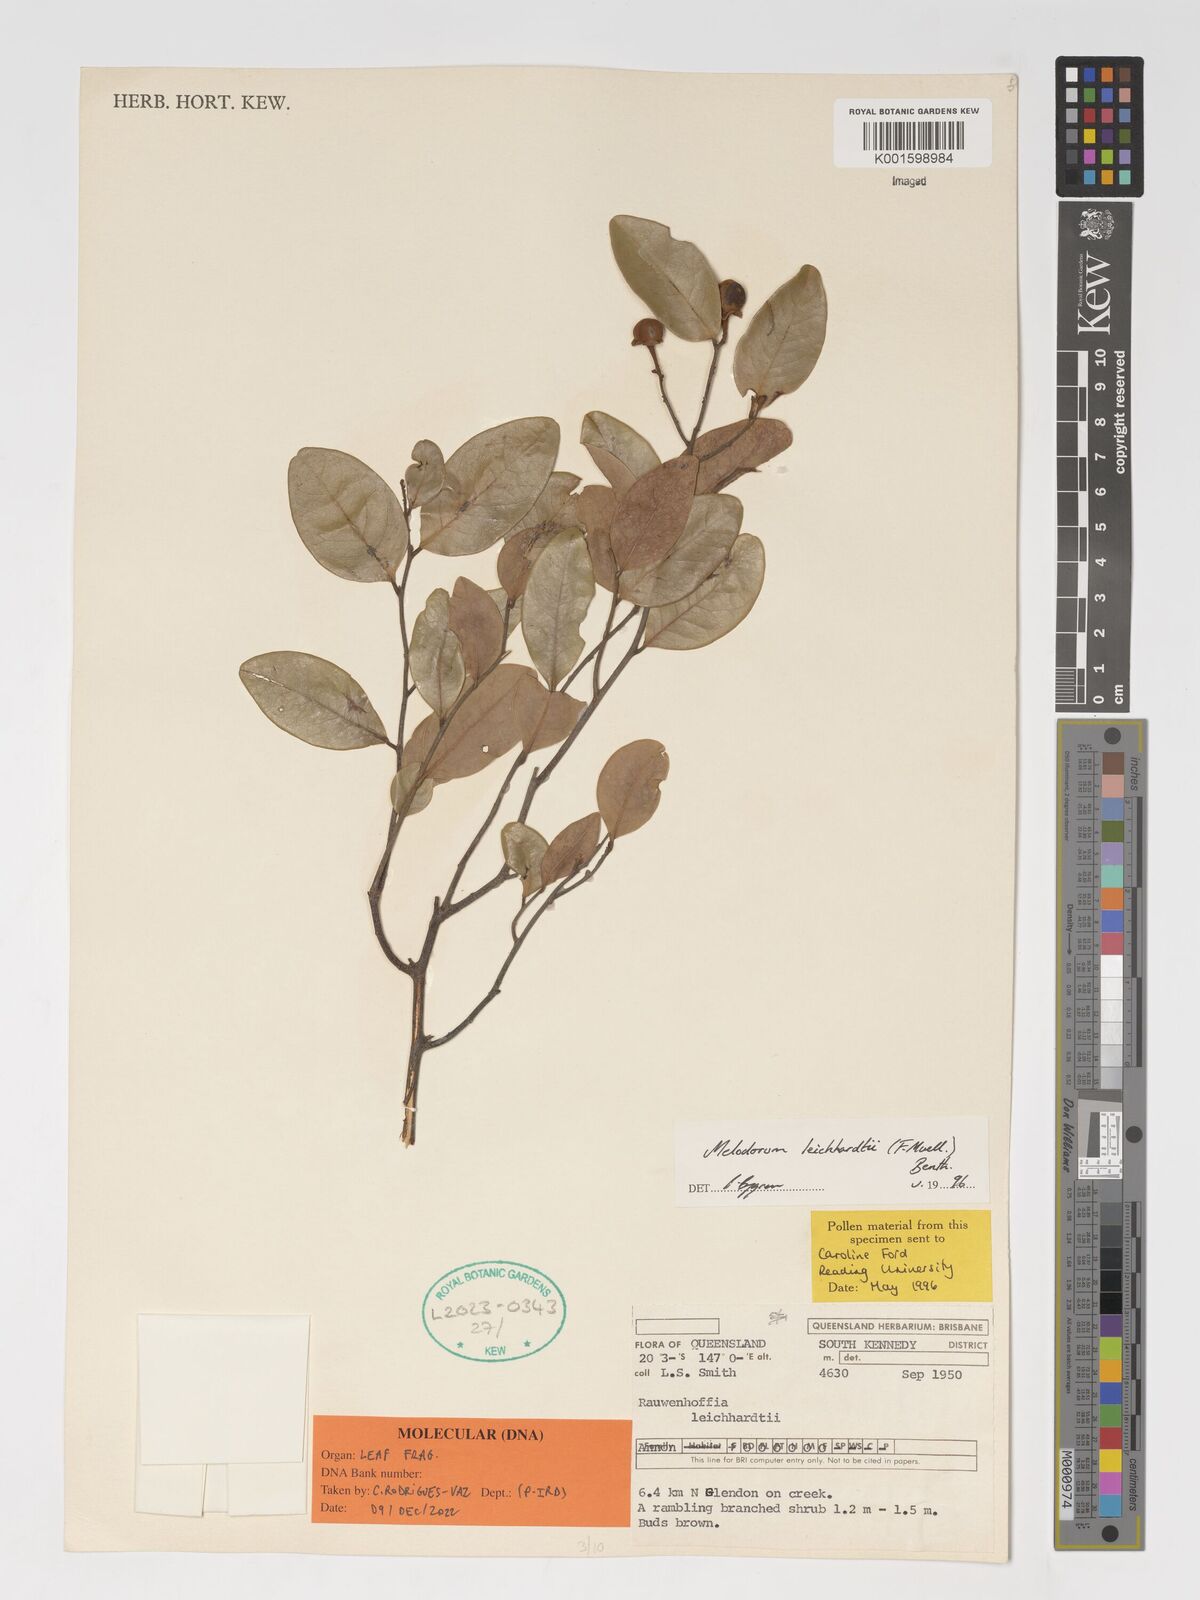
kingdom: Plantae
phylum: Tracheophyta
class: Magnoliopsida
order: Magnoliales
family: Annonaceae
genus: Melodorum
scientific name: Melodorum leichhardtii
